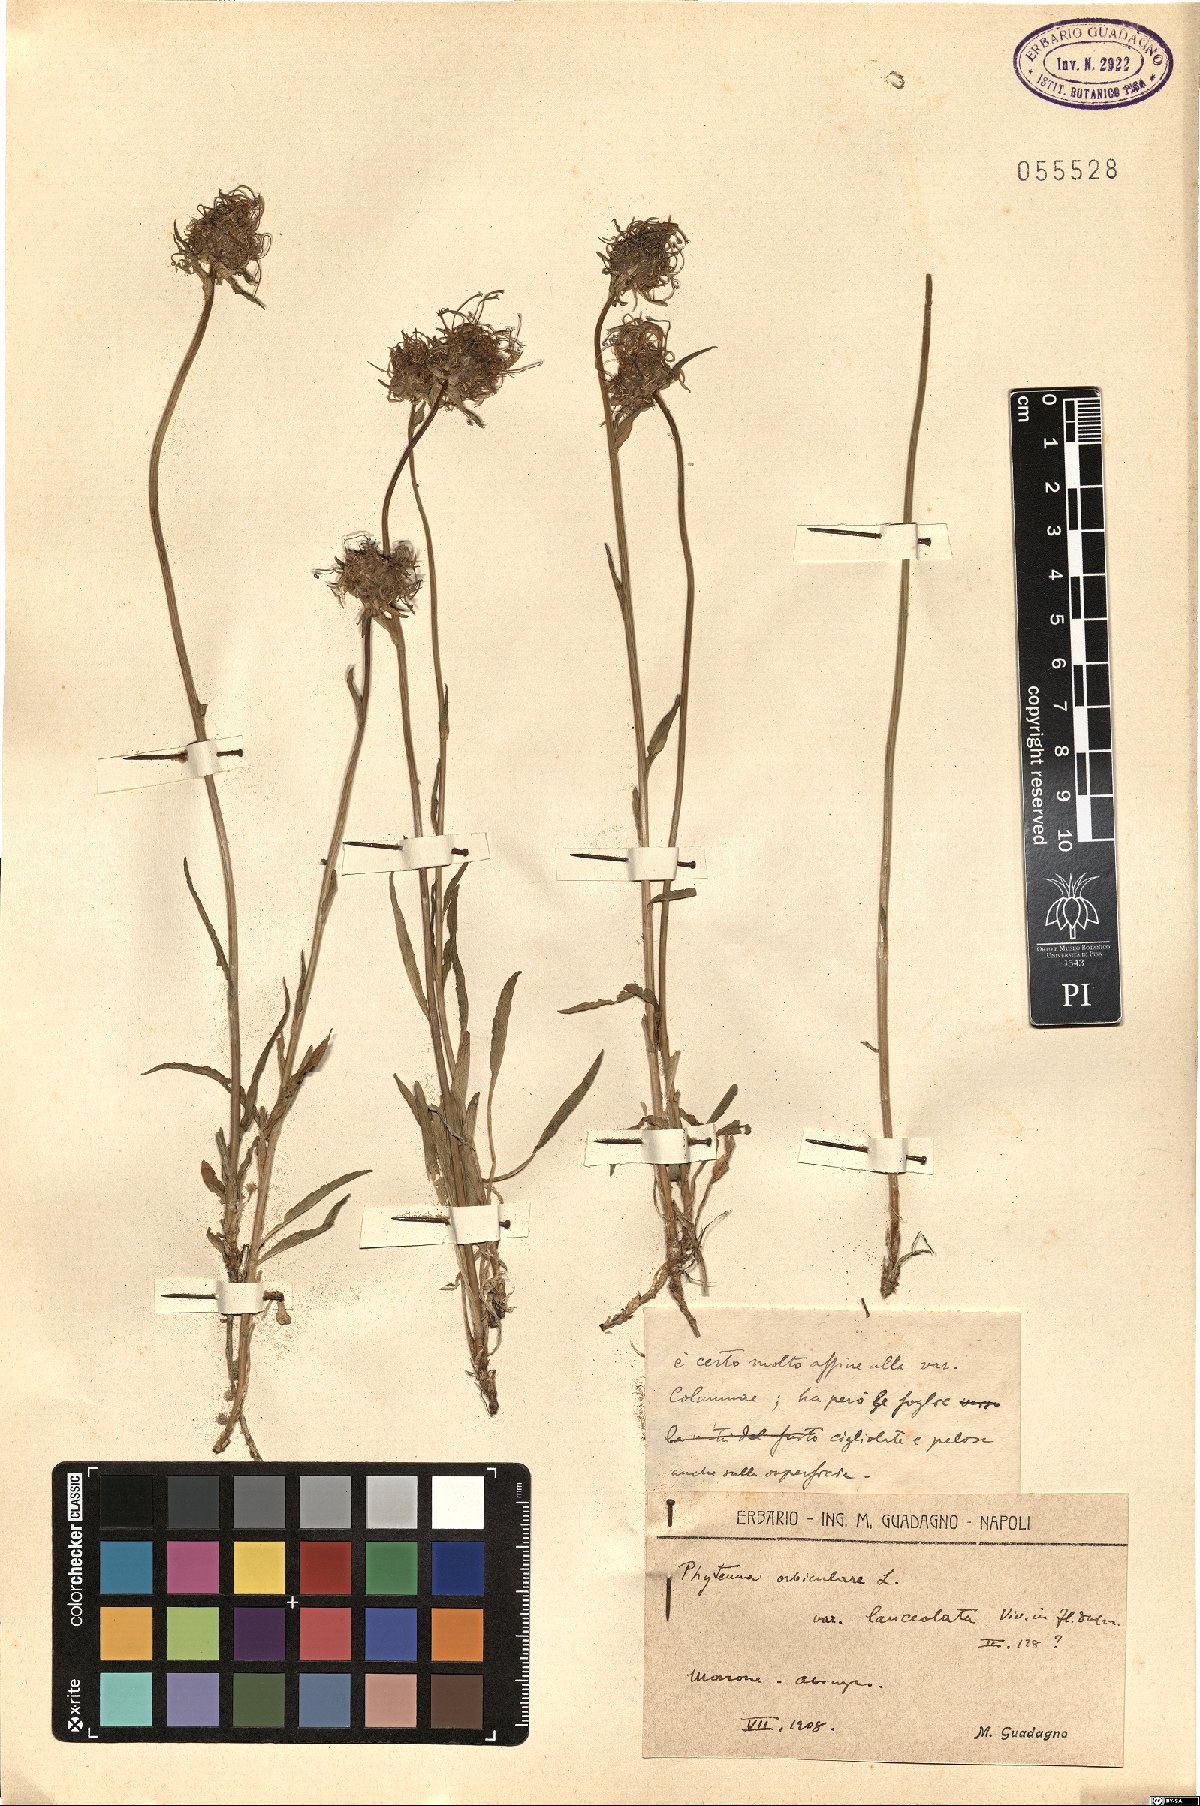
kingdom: Plantae
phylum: Tracheophyta
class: Magnoliopsida
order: Asterales
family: Campanulaceae
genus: Phyteuma
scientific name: Phyteuma orbiculare
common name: Round-headed rampion
